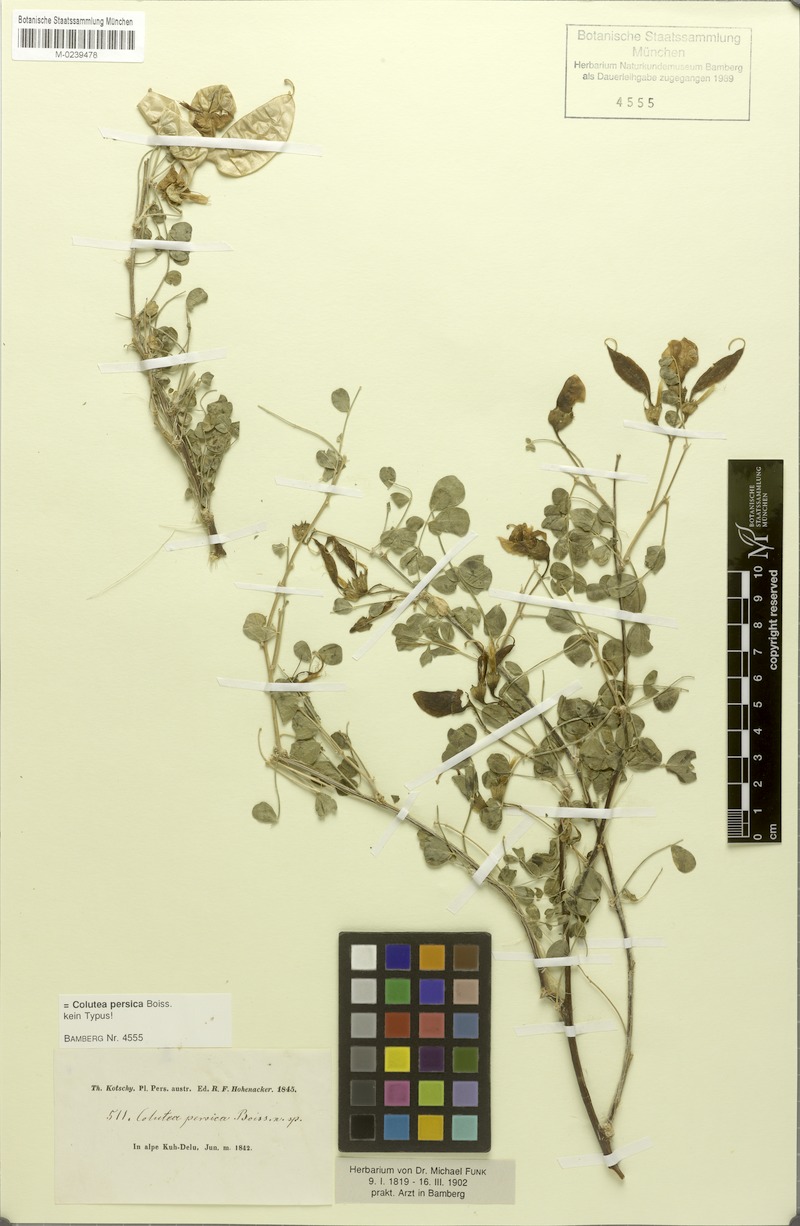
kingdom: Plantae
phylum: Tracheophyta
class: Magnoliopsida
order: Fabales
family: Fabaceae
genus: Colutea
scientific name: Colutea persica
